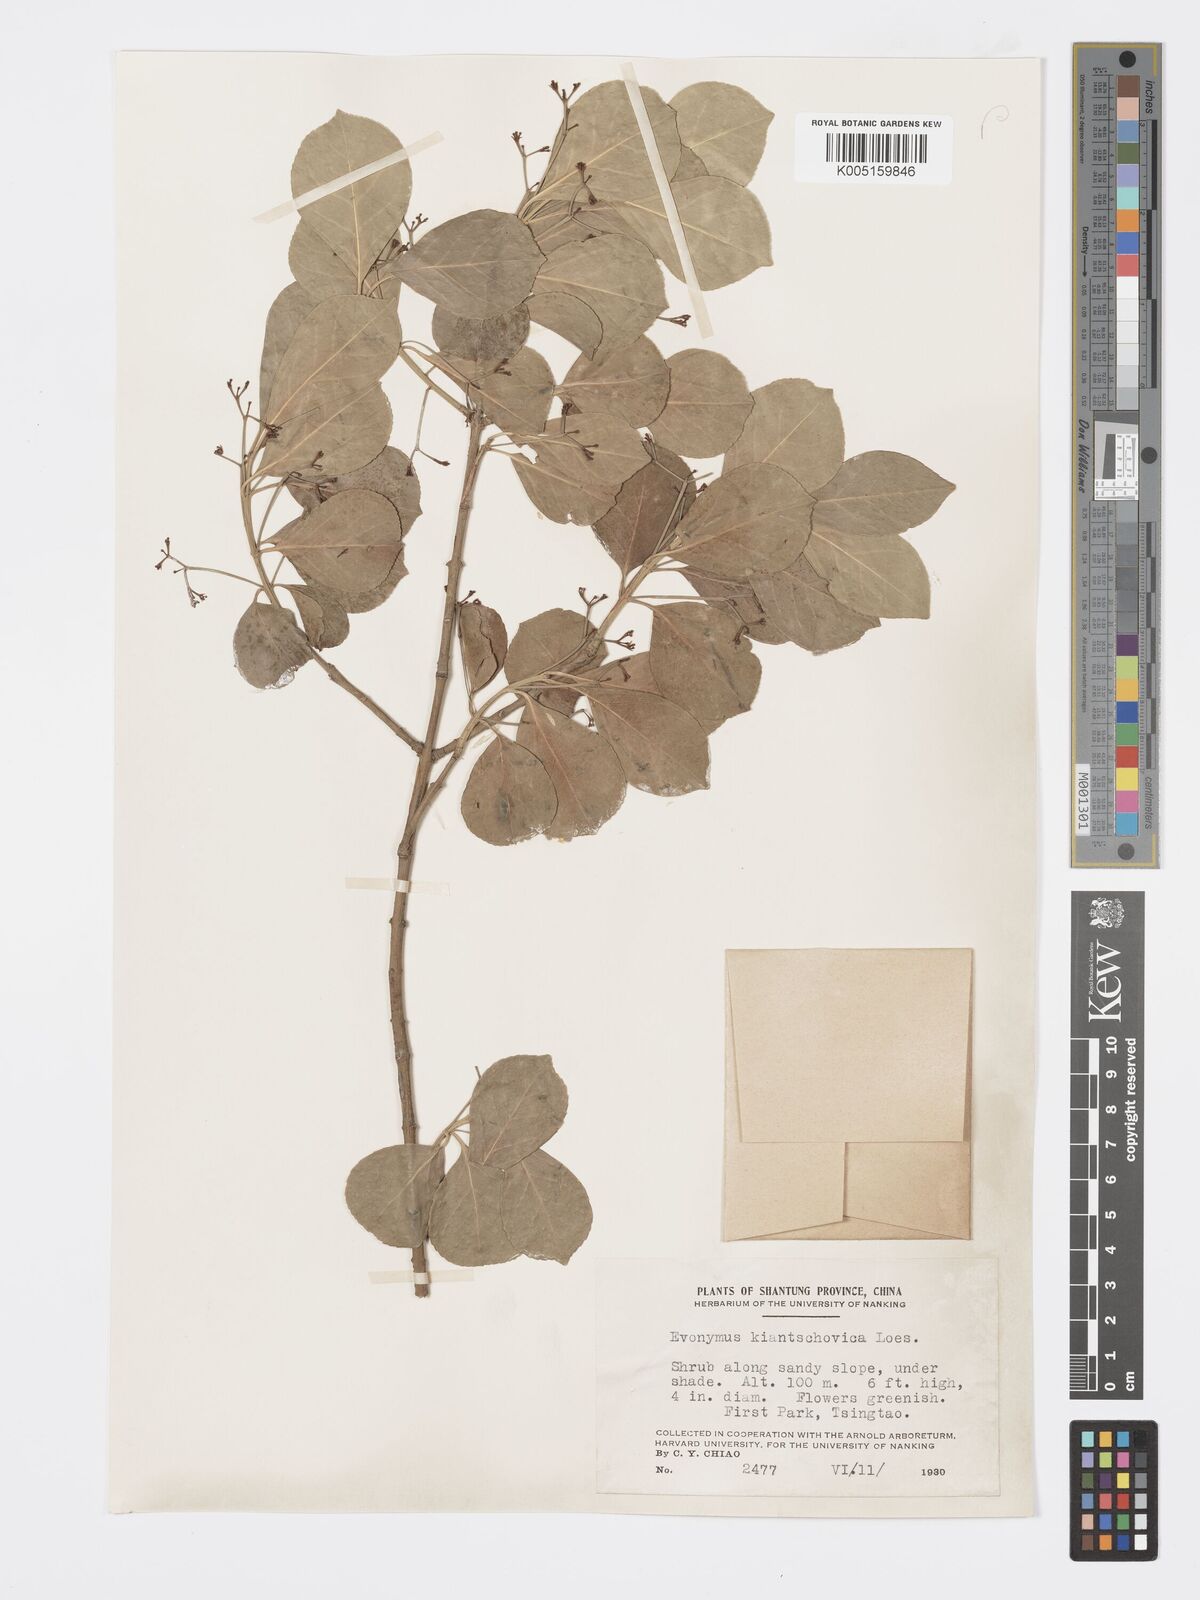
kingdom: Plantae
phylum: Tracheophyta
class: Magnoliopsida
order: Celastrales
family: Celastraceae
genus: Euonymus
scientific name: Euonymus fortunei
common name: Climbing euonymus
